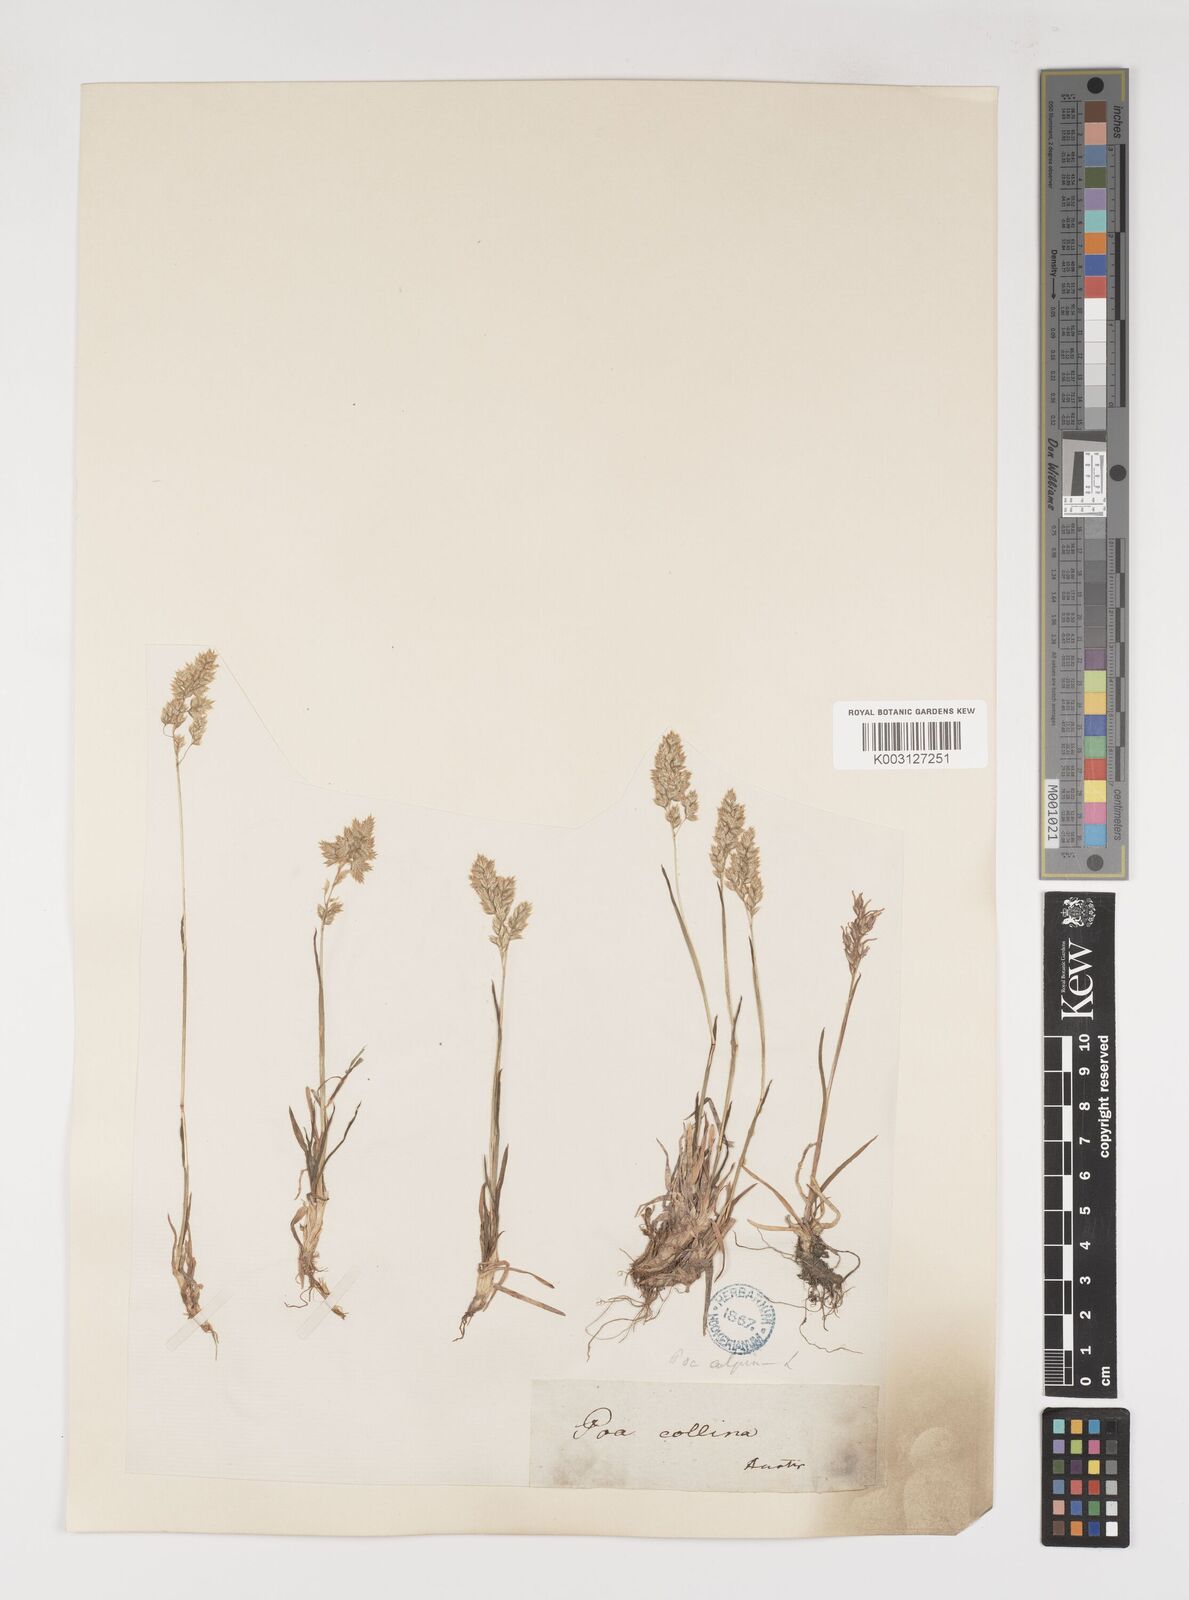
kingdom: Plantae
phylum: Tracheophyta
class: Liliopsida
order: Poales
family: Poaceae
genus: Poa
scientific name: Poa alpina
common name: Alpine bluegrass
